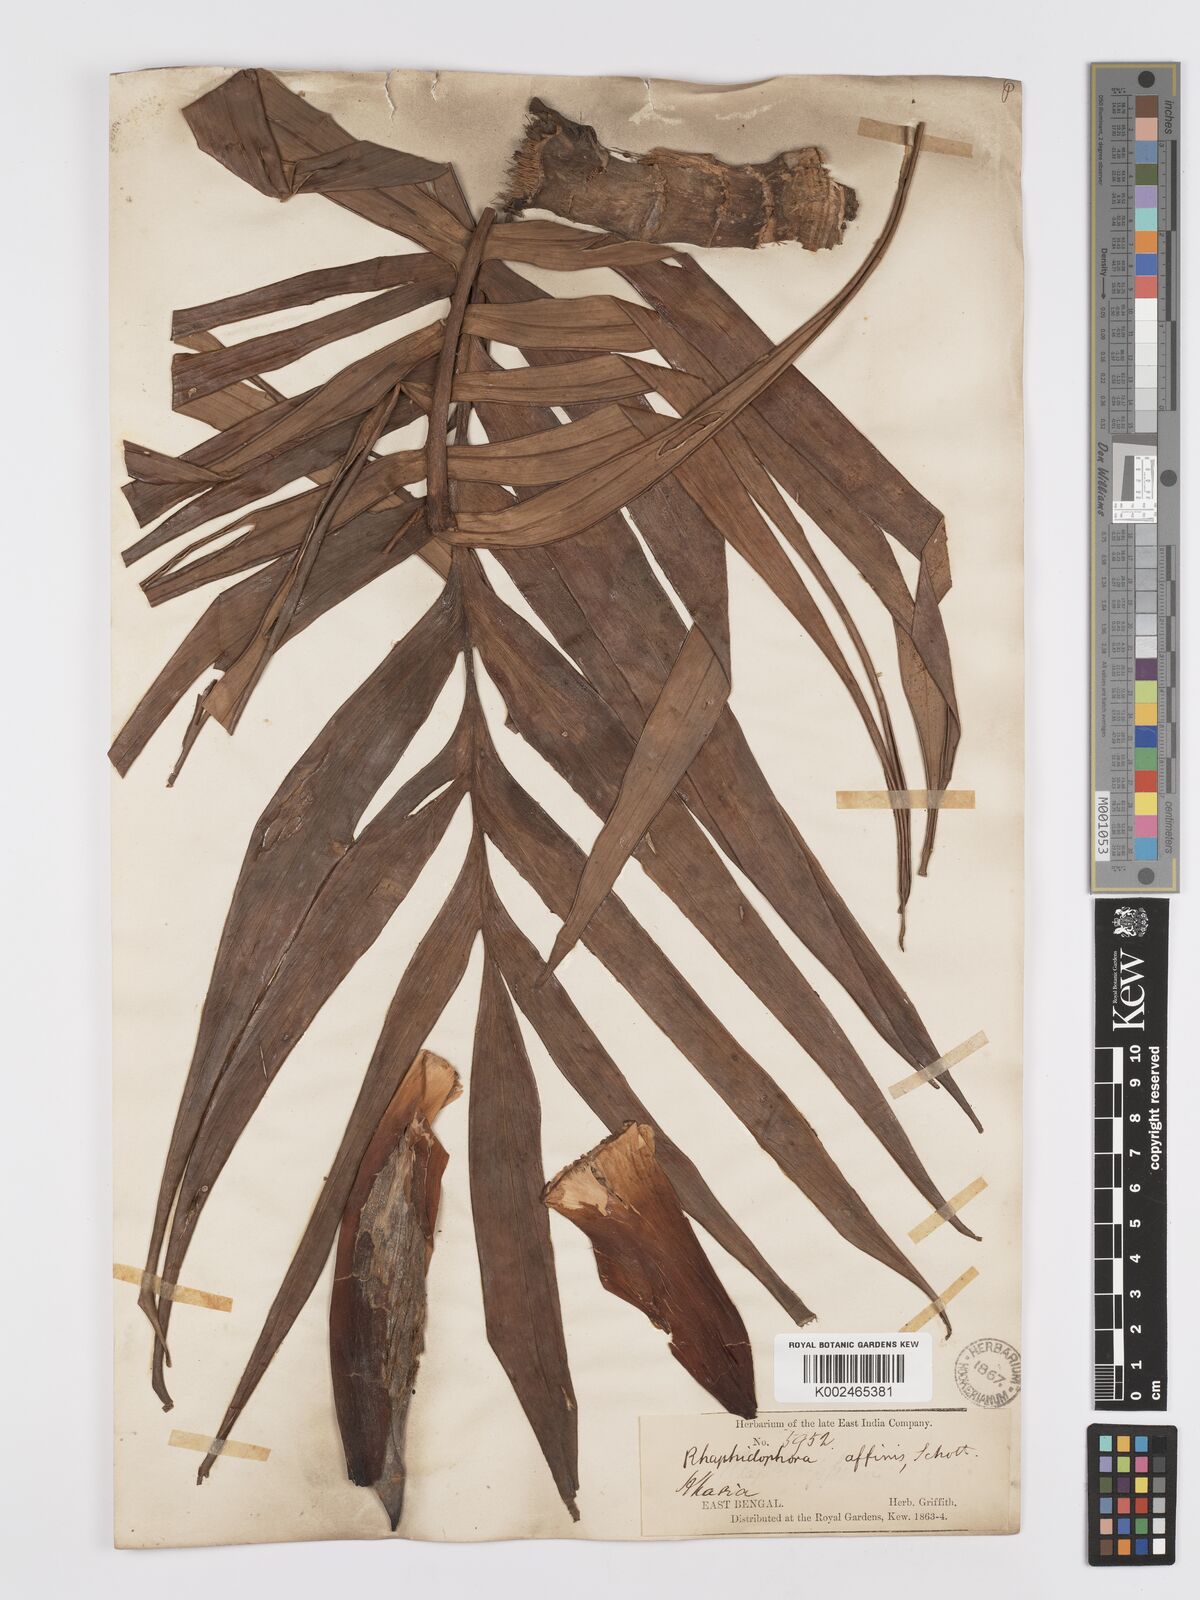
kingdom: Plantae
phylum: Tracheophyta
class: Liliopsida
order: Alismatales
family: Araceae
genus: Rhaphidophora
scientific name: Rhaphidophora decursiva
